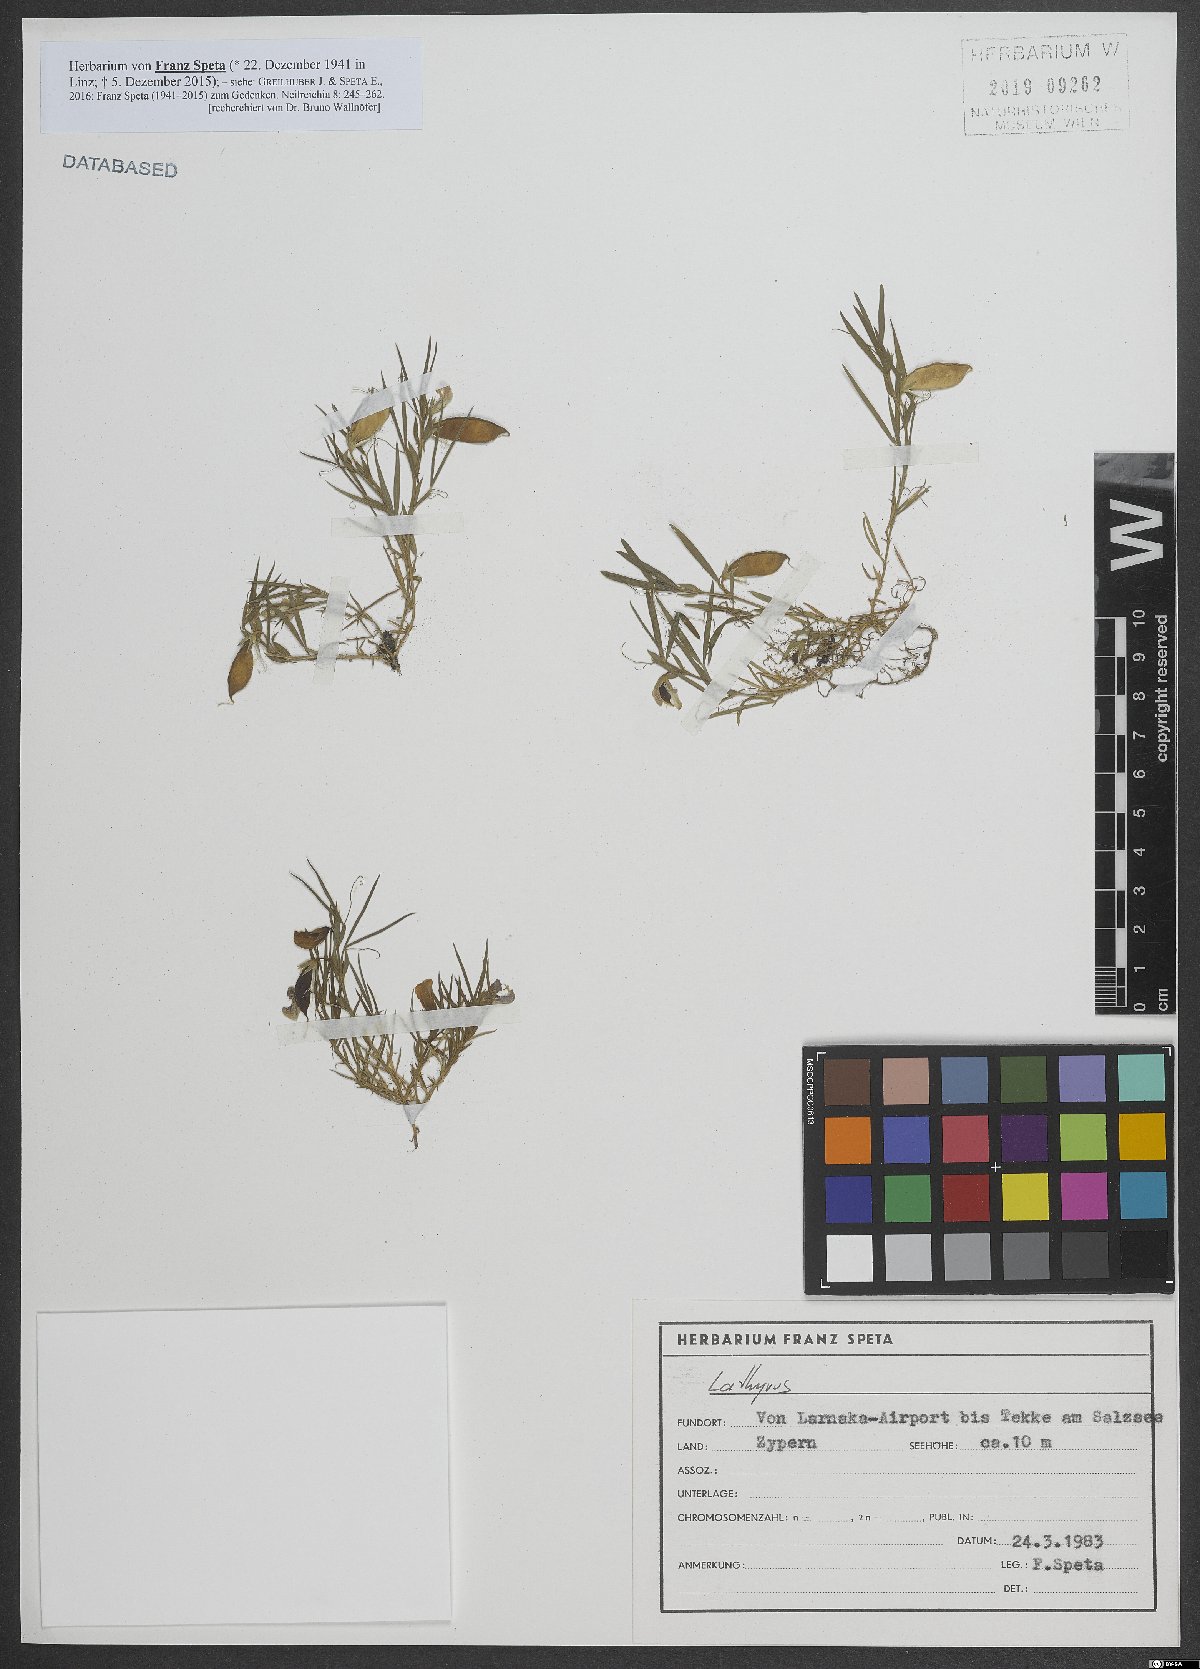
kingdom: Plantae
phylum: Tracheophyta
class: Magnoliopsida
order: Fabales
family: Fabaceae
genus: Lathyrus
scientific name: Lathyrus
